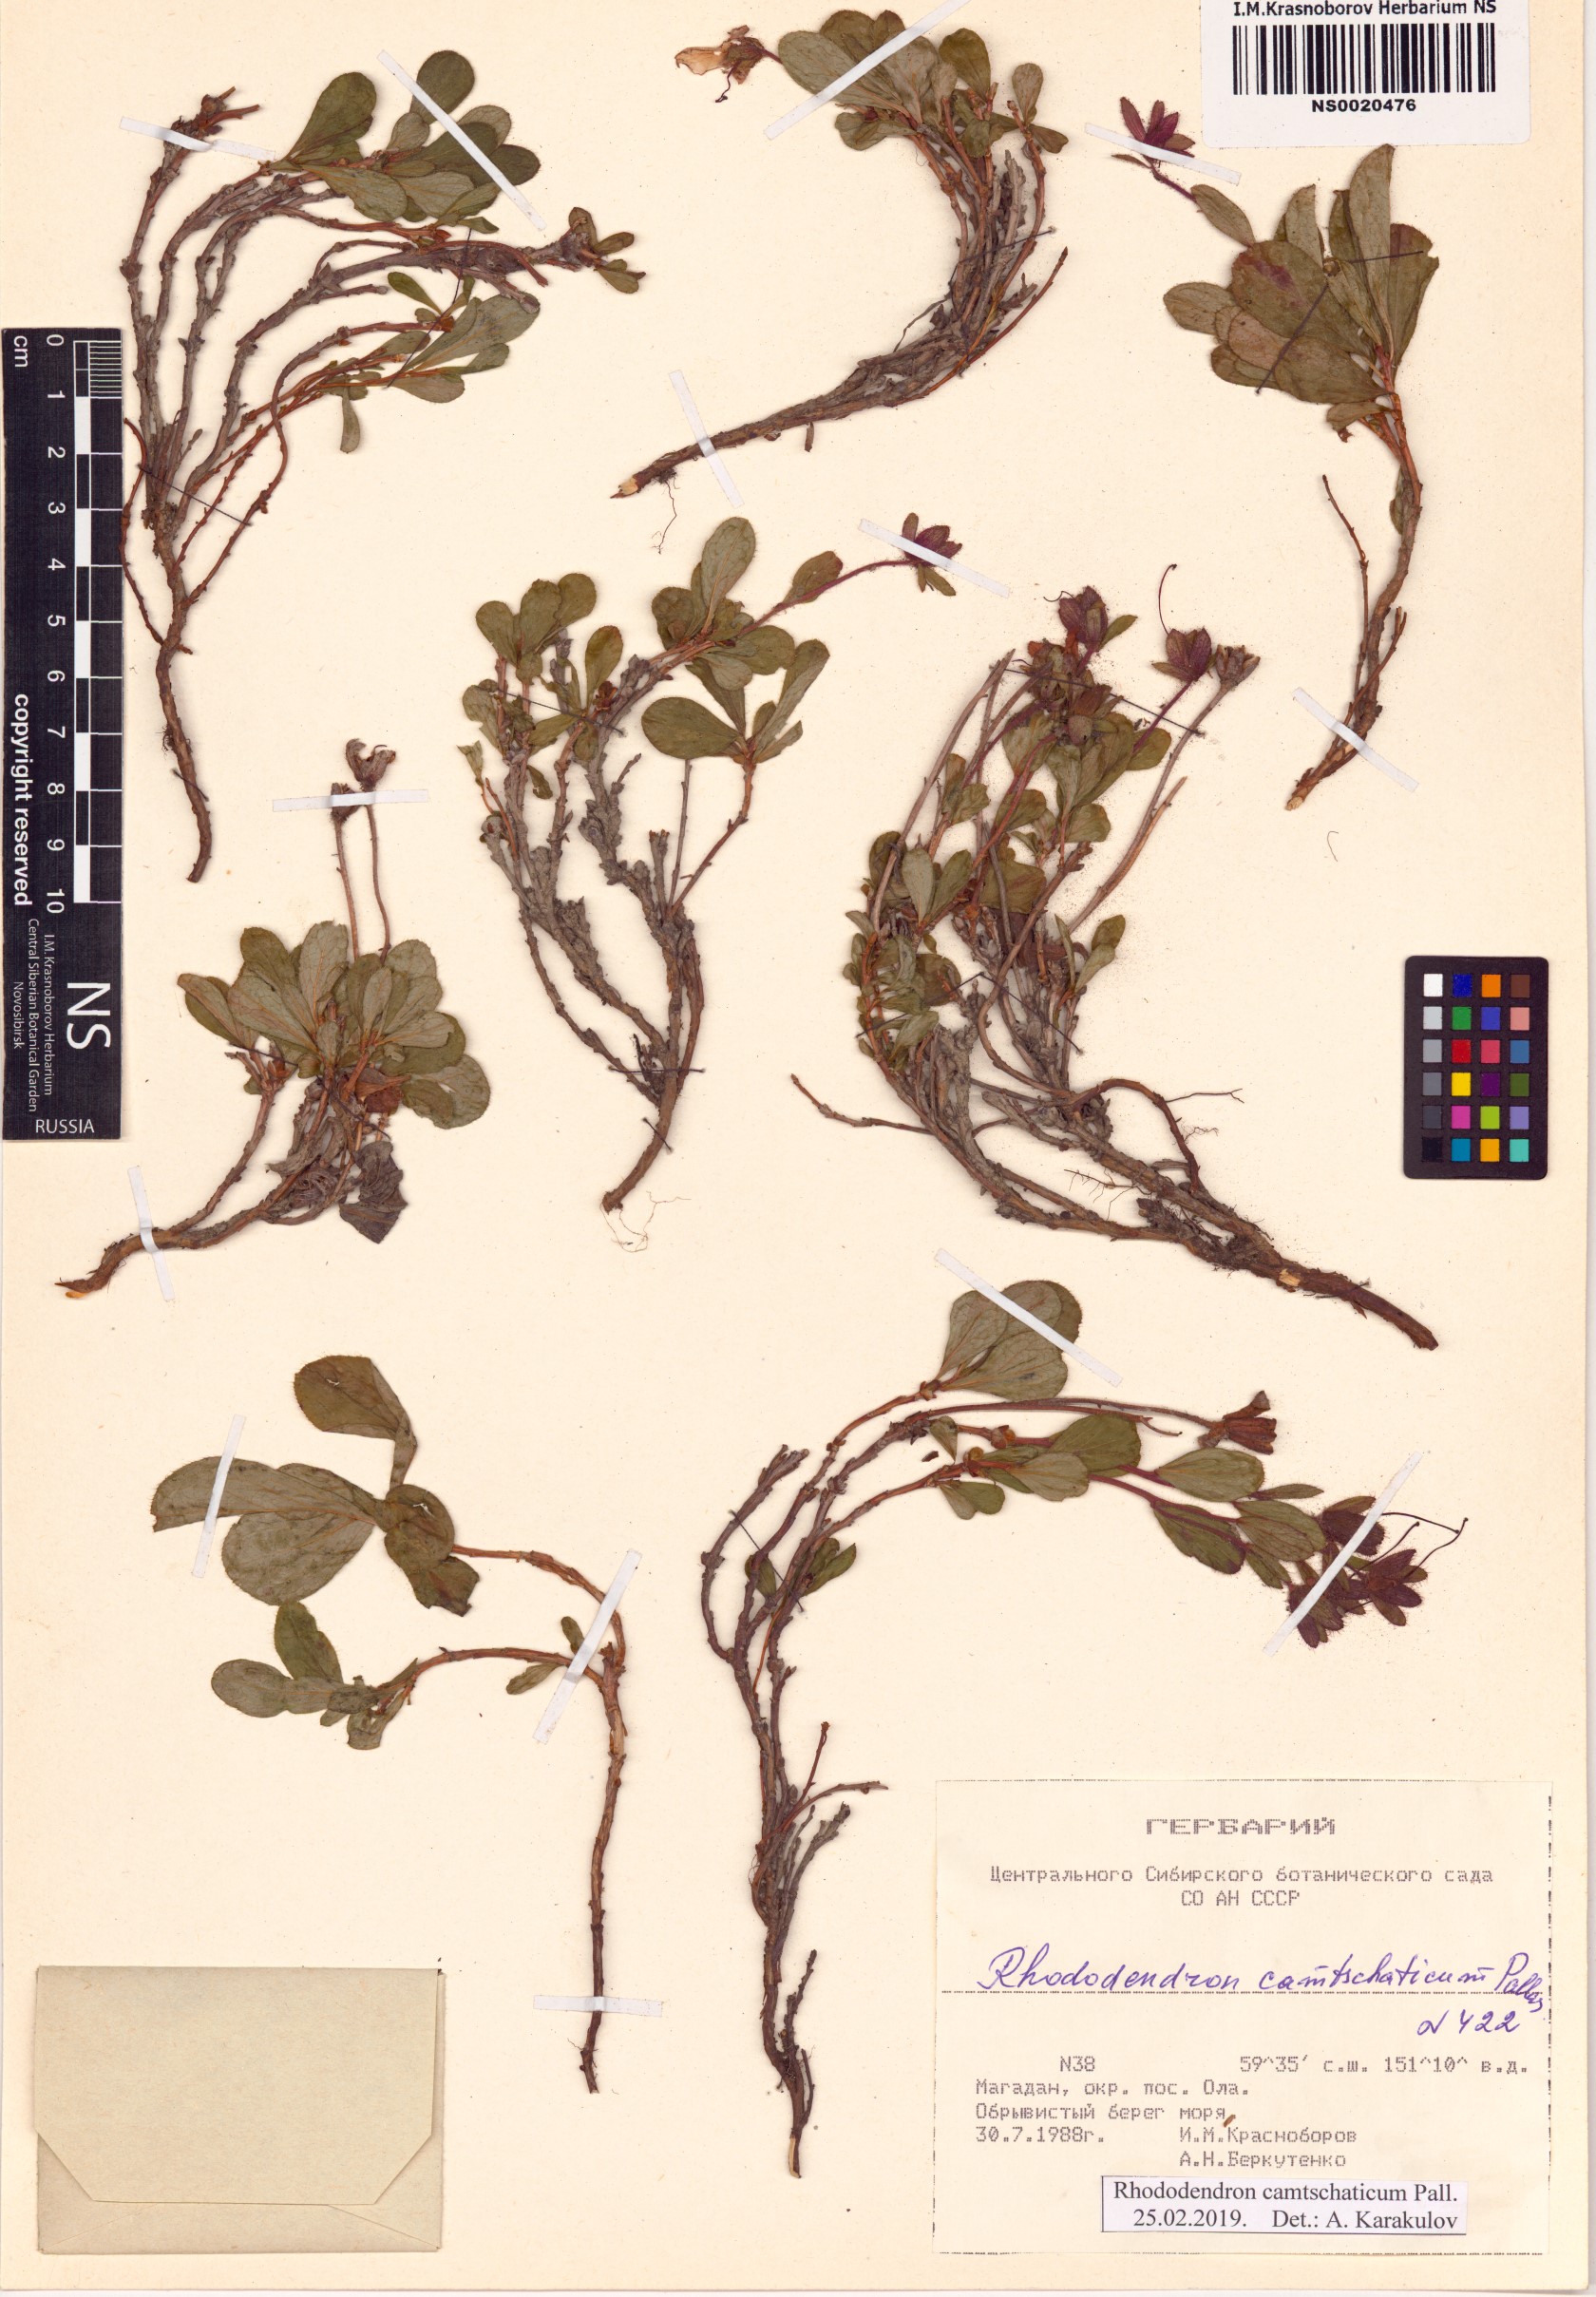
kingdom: Plantae
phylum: Tracheophyta
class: Magnoliopsida
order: Ericales
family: Ericaceae
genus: Rhododendron
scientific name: Rhododendron camtschaticum
